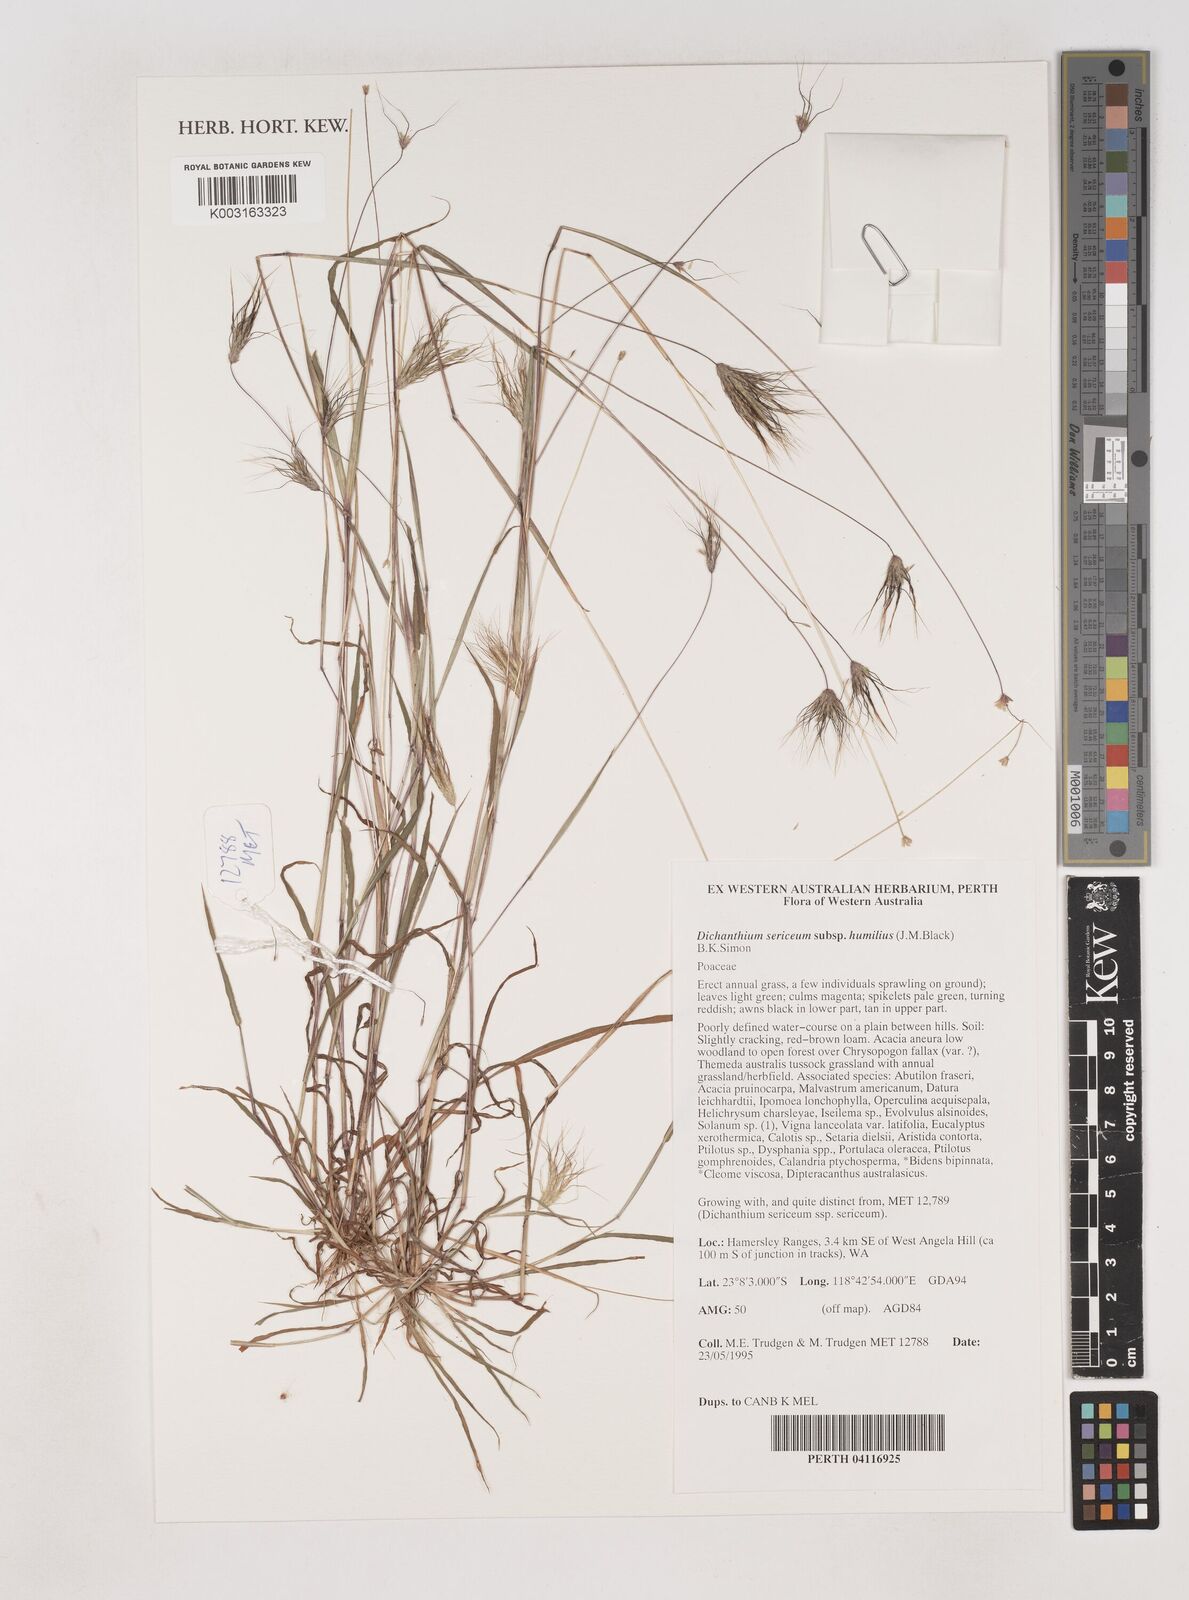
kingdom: Plantae
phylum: Tracheophyta
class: Liliopsida
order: Poales
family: Poaceae
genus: Dichanthium
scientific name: Dichanthium sericeum
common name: Silky bluestem
